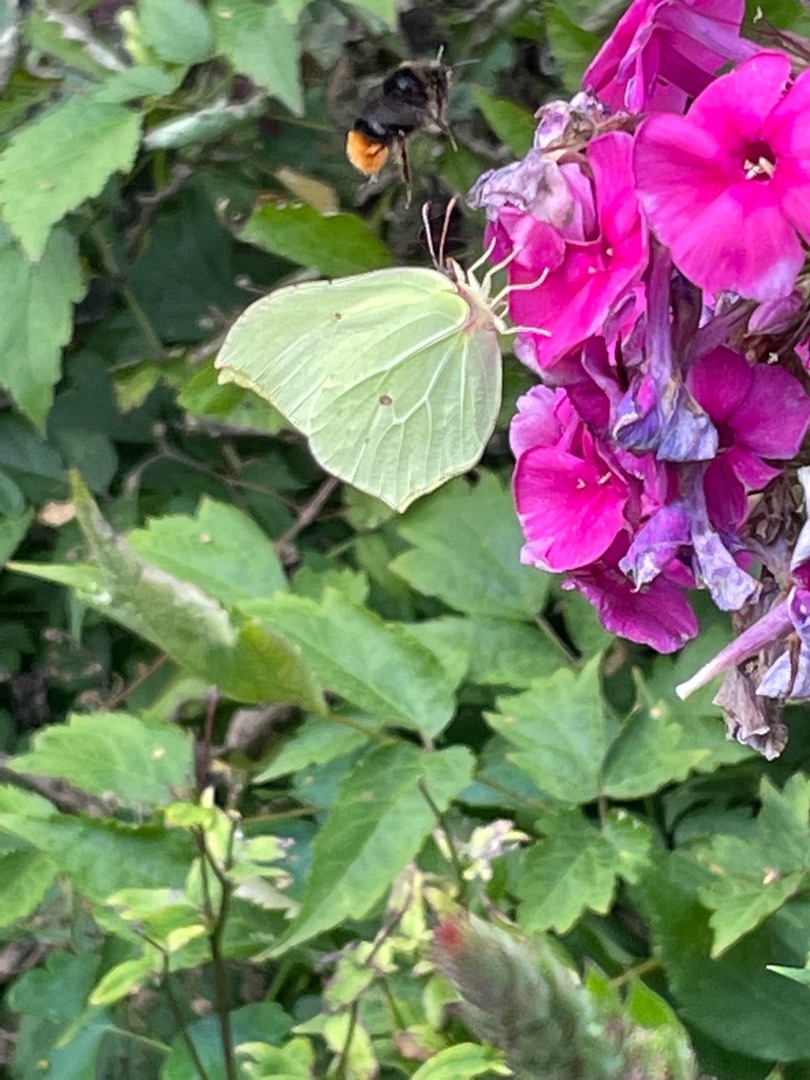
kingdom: Animalia
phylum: Arthropoda
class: Insecta
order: Lepidoptera
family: Pieridae
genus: Gonepteryx
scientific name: Gonepteryx rhamni
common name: Citronsommerfugl
